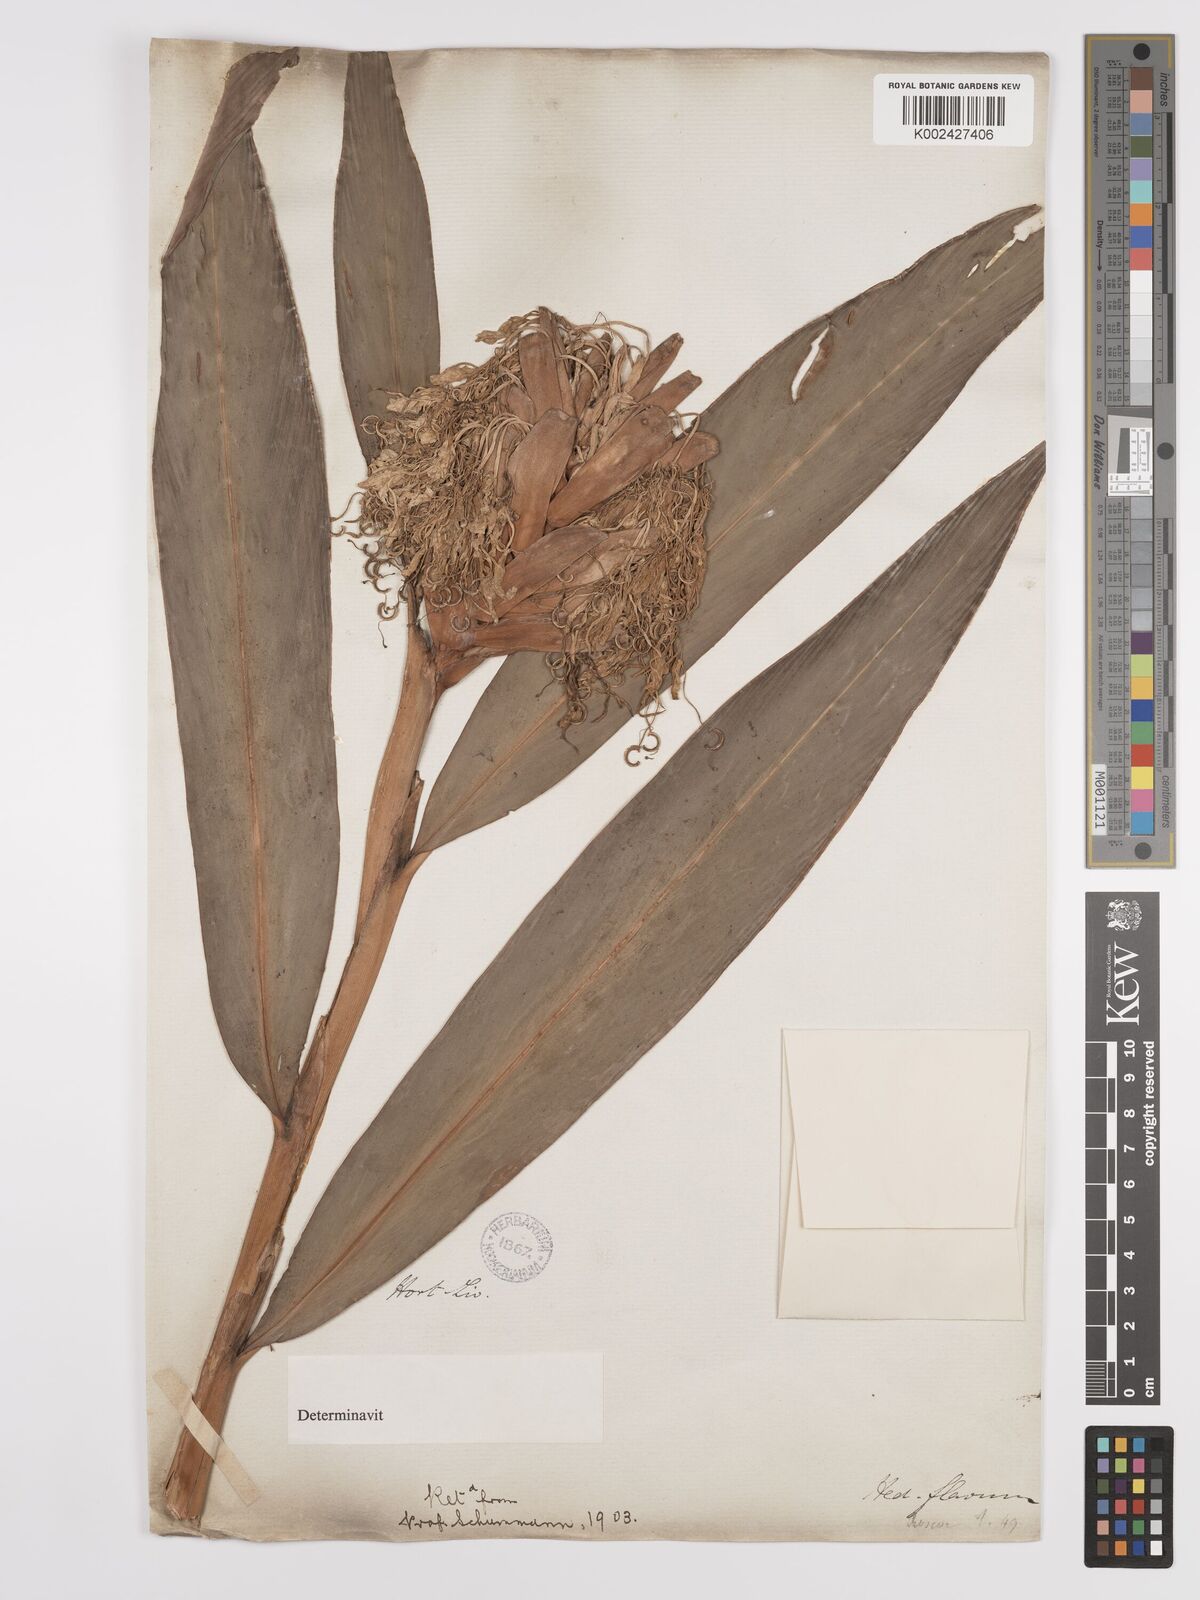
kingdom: Plantae
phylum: Tracheophyta
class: Liliopsida
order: Zingiberales
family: Zingiberaceae
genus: Hedychium
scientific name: Hedychium flavescens
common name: Yellow ginger
